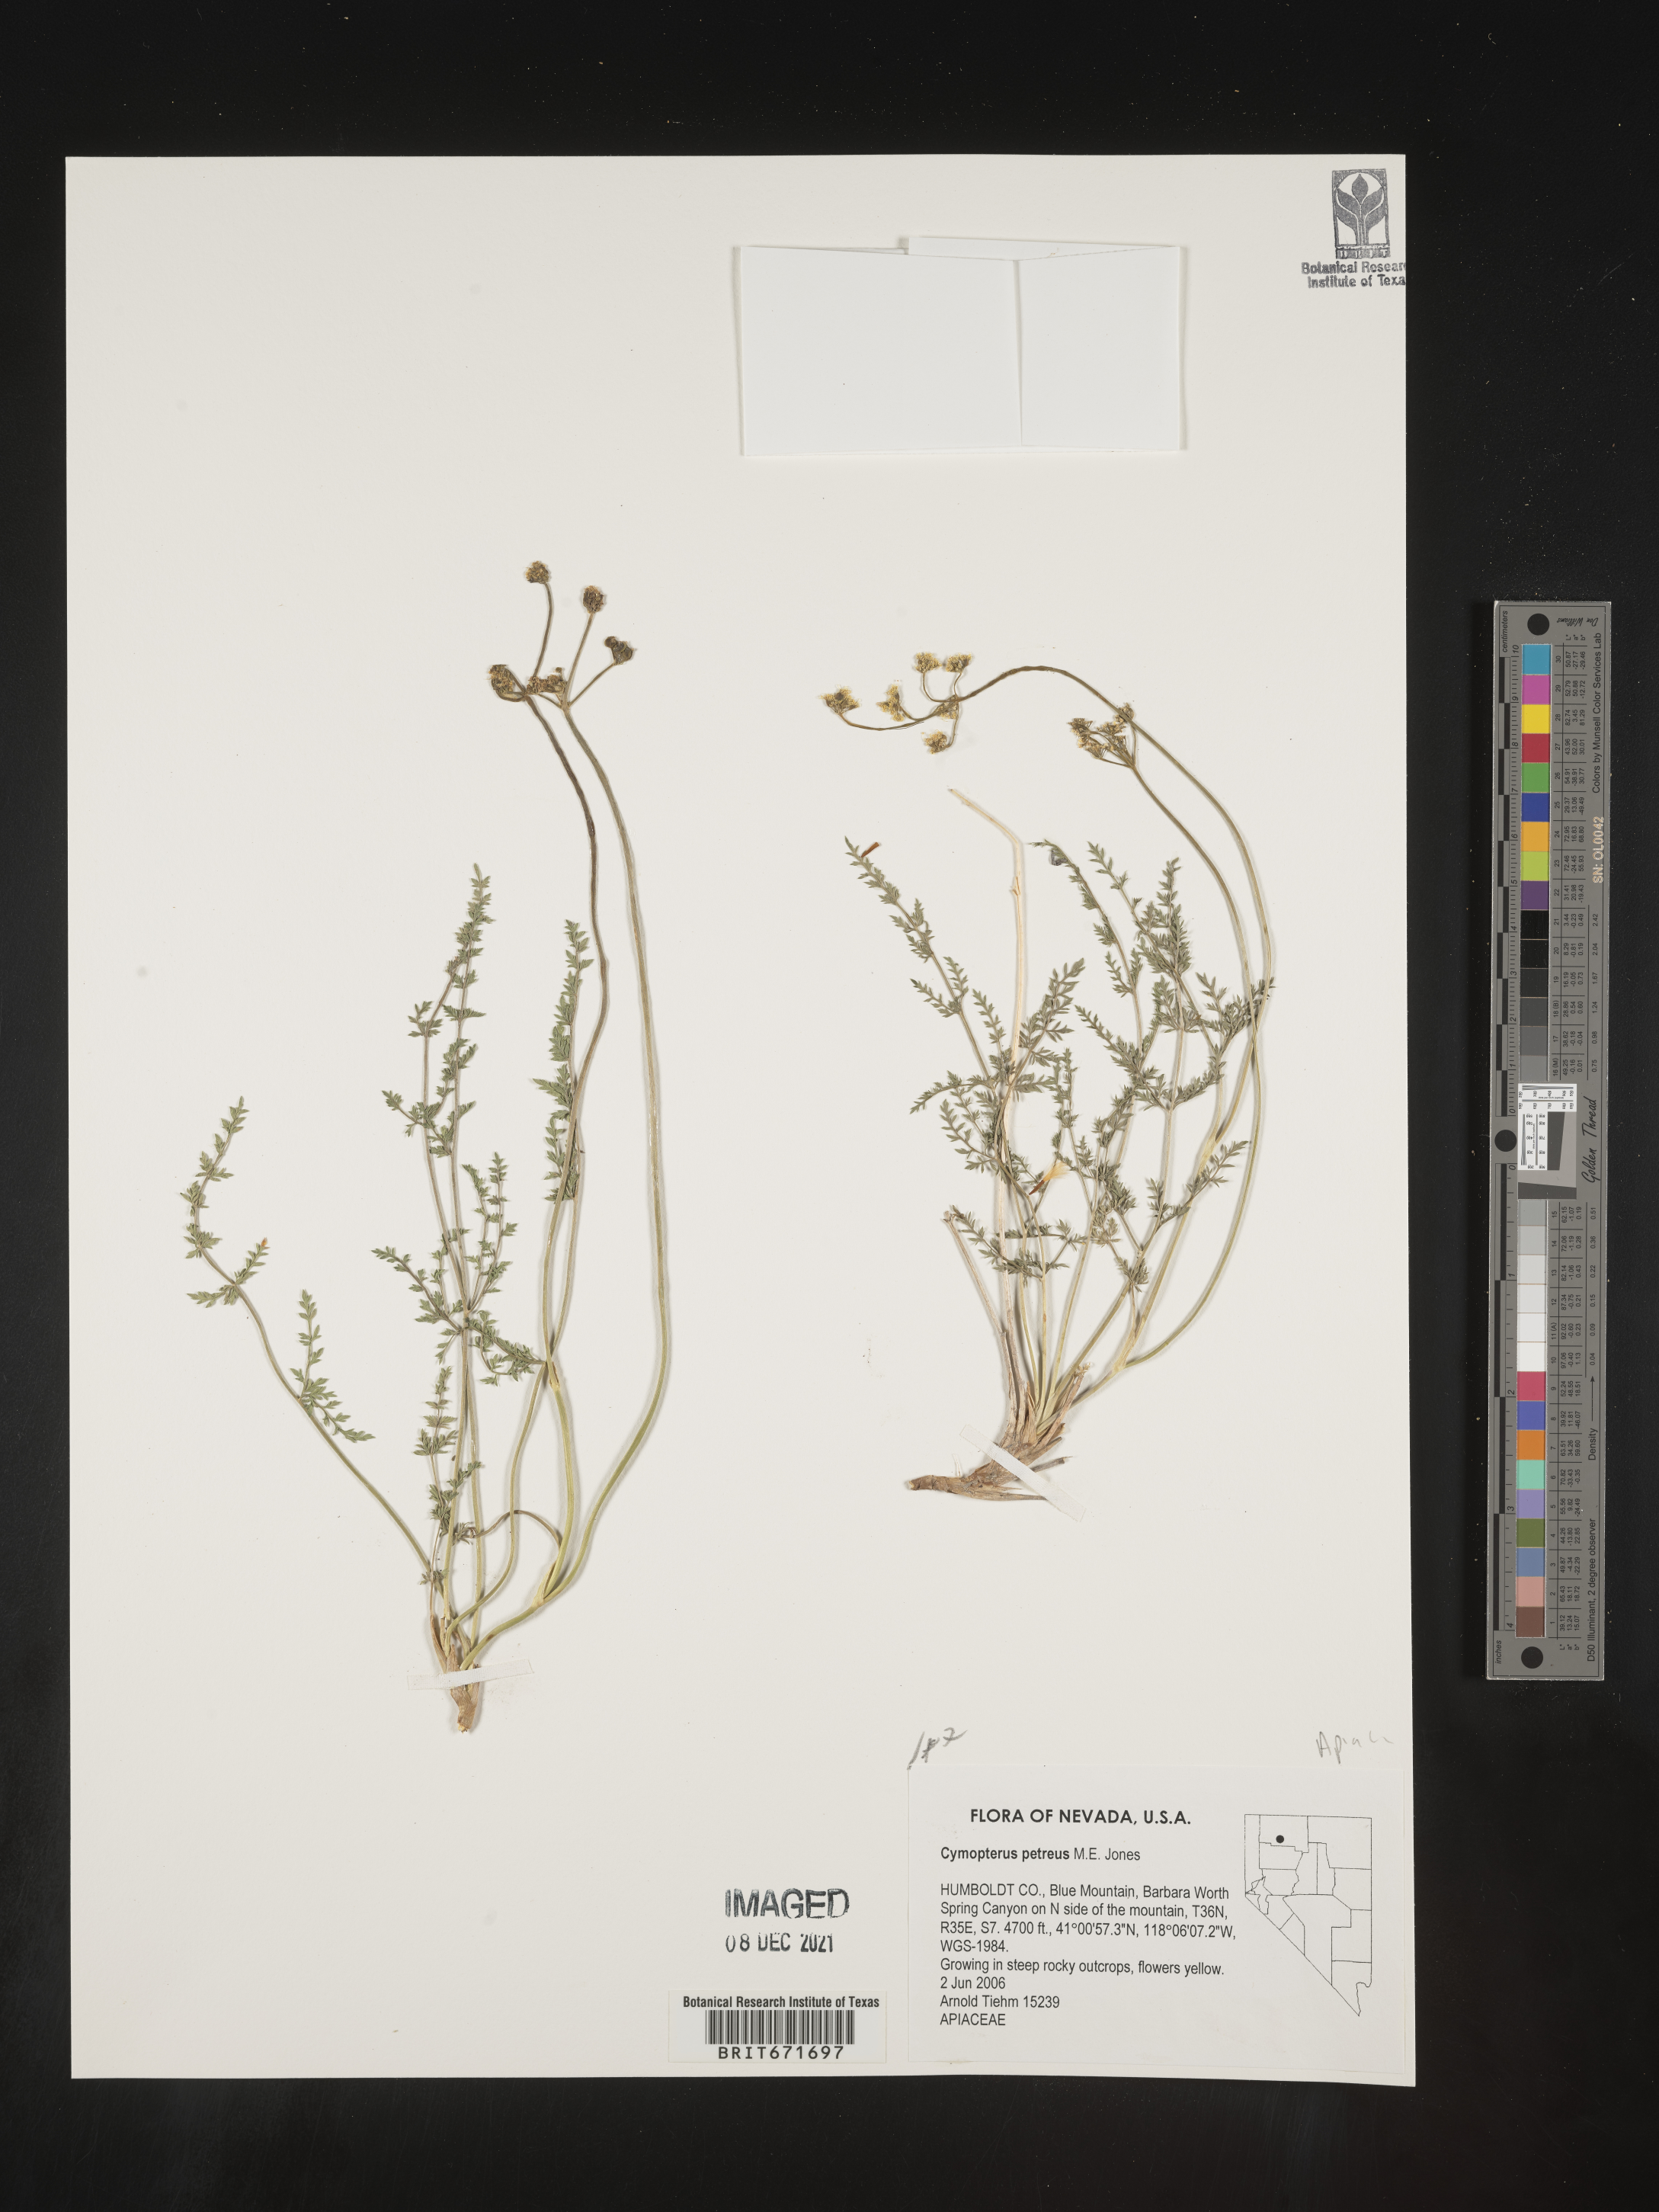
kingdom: Plantae
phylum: Tracheophyta
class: Magnoliopsida
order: Apiales
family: Apiaceae
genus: Pteryxia
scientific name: Pteryxia petraea
